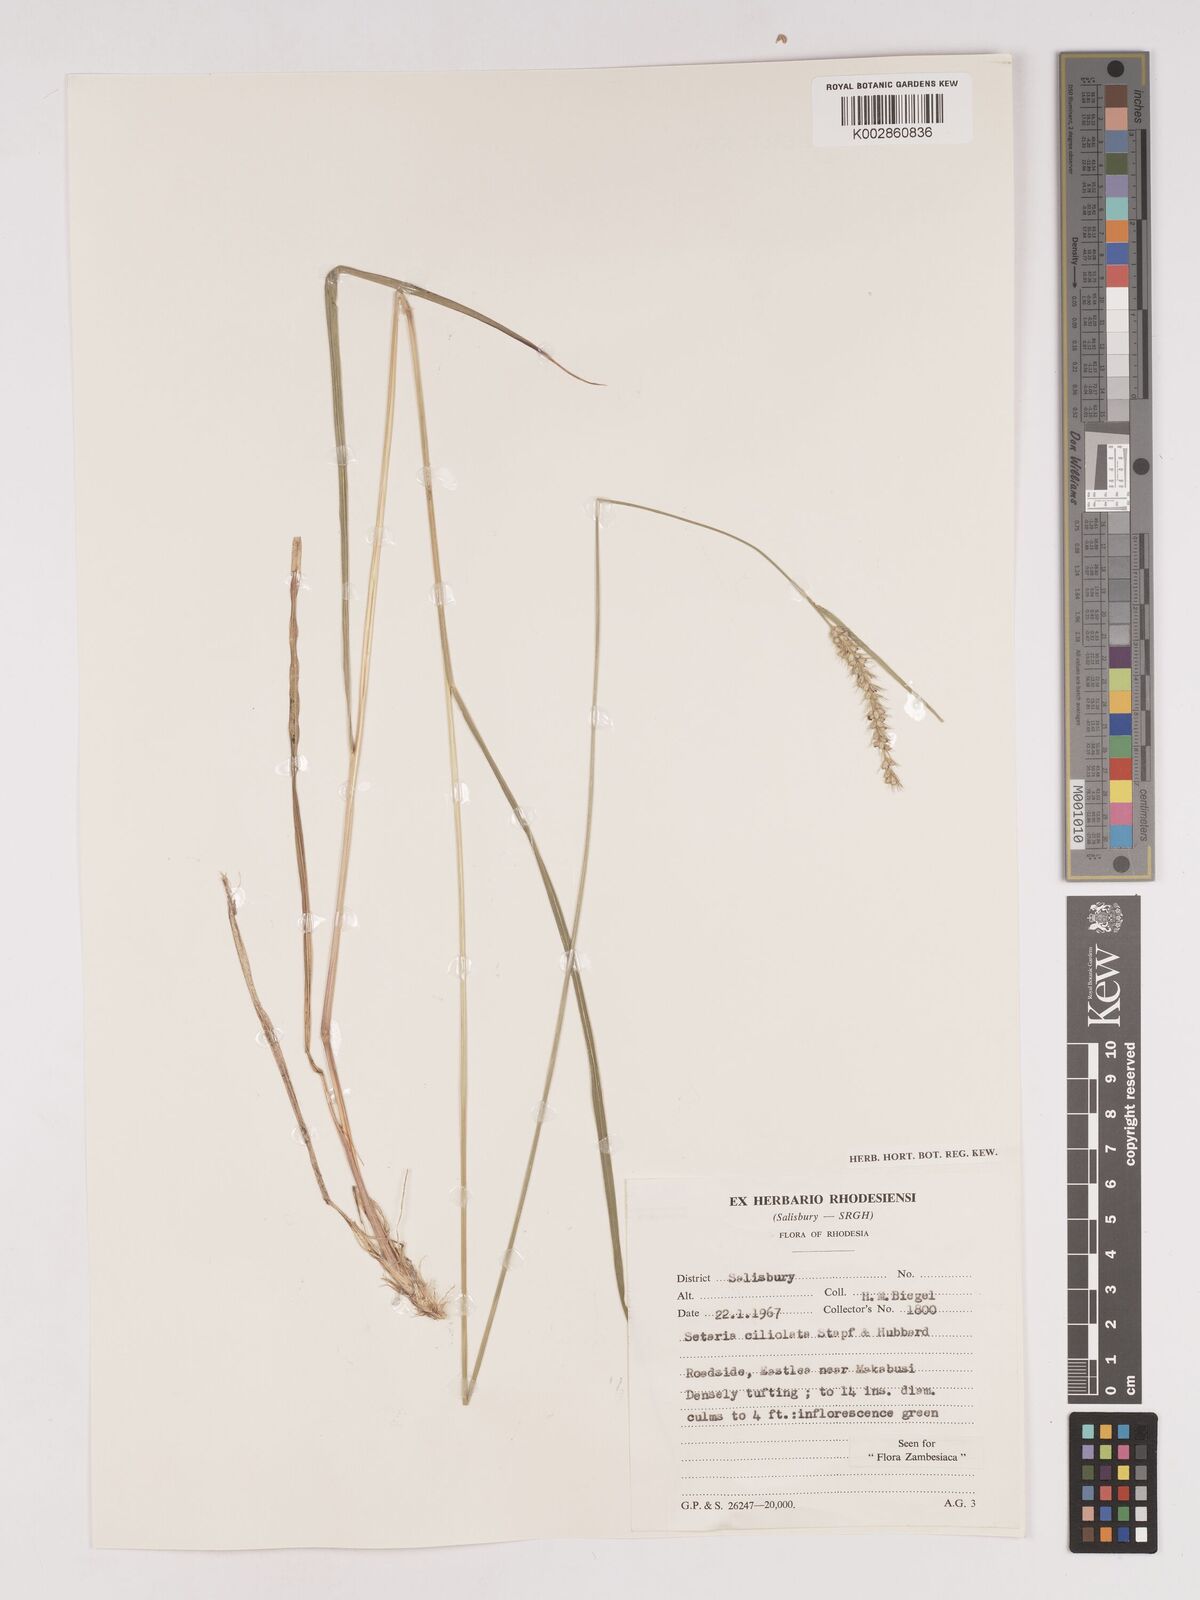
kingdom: Plantae
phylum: Tracheophyta
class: Liliopsida
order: Poales
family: Poaceae
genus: Setaria
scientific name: Setaria incrassata
